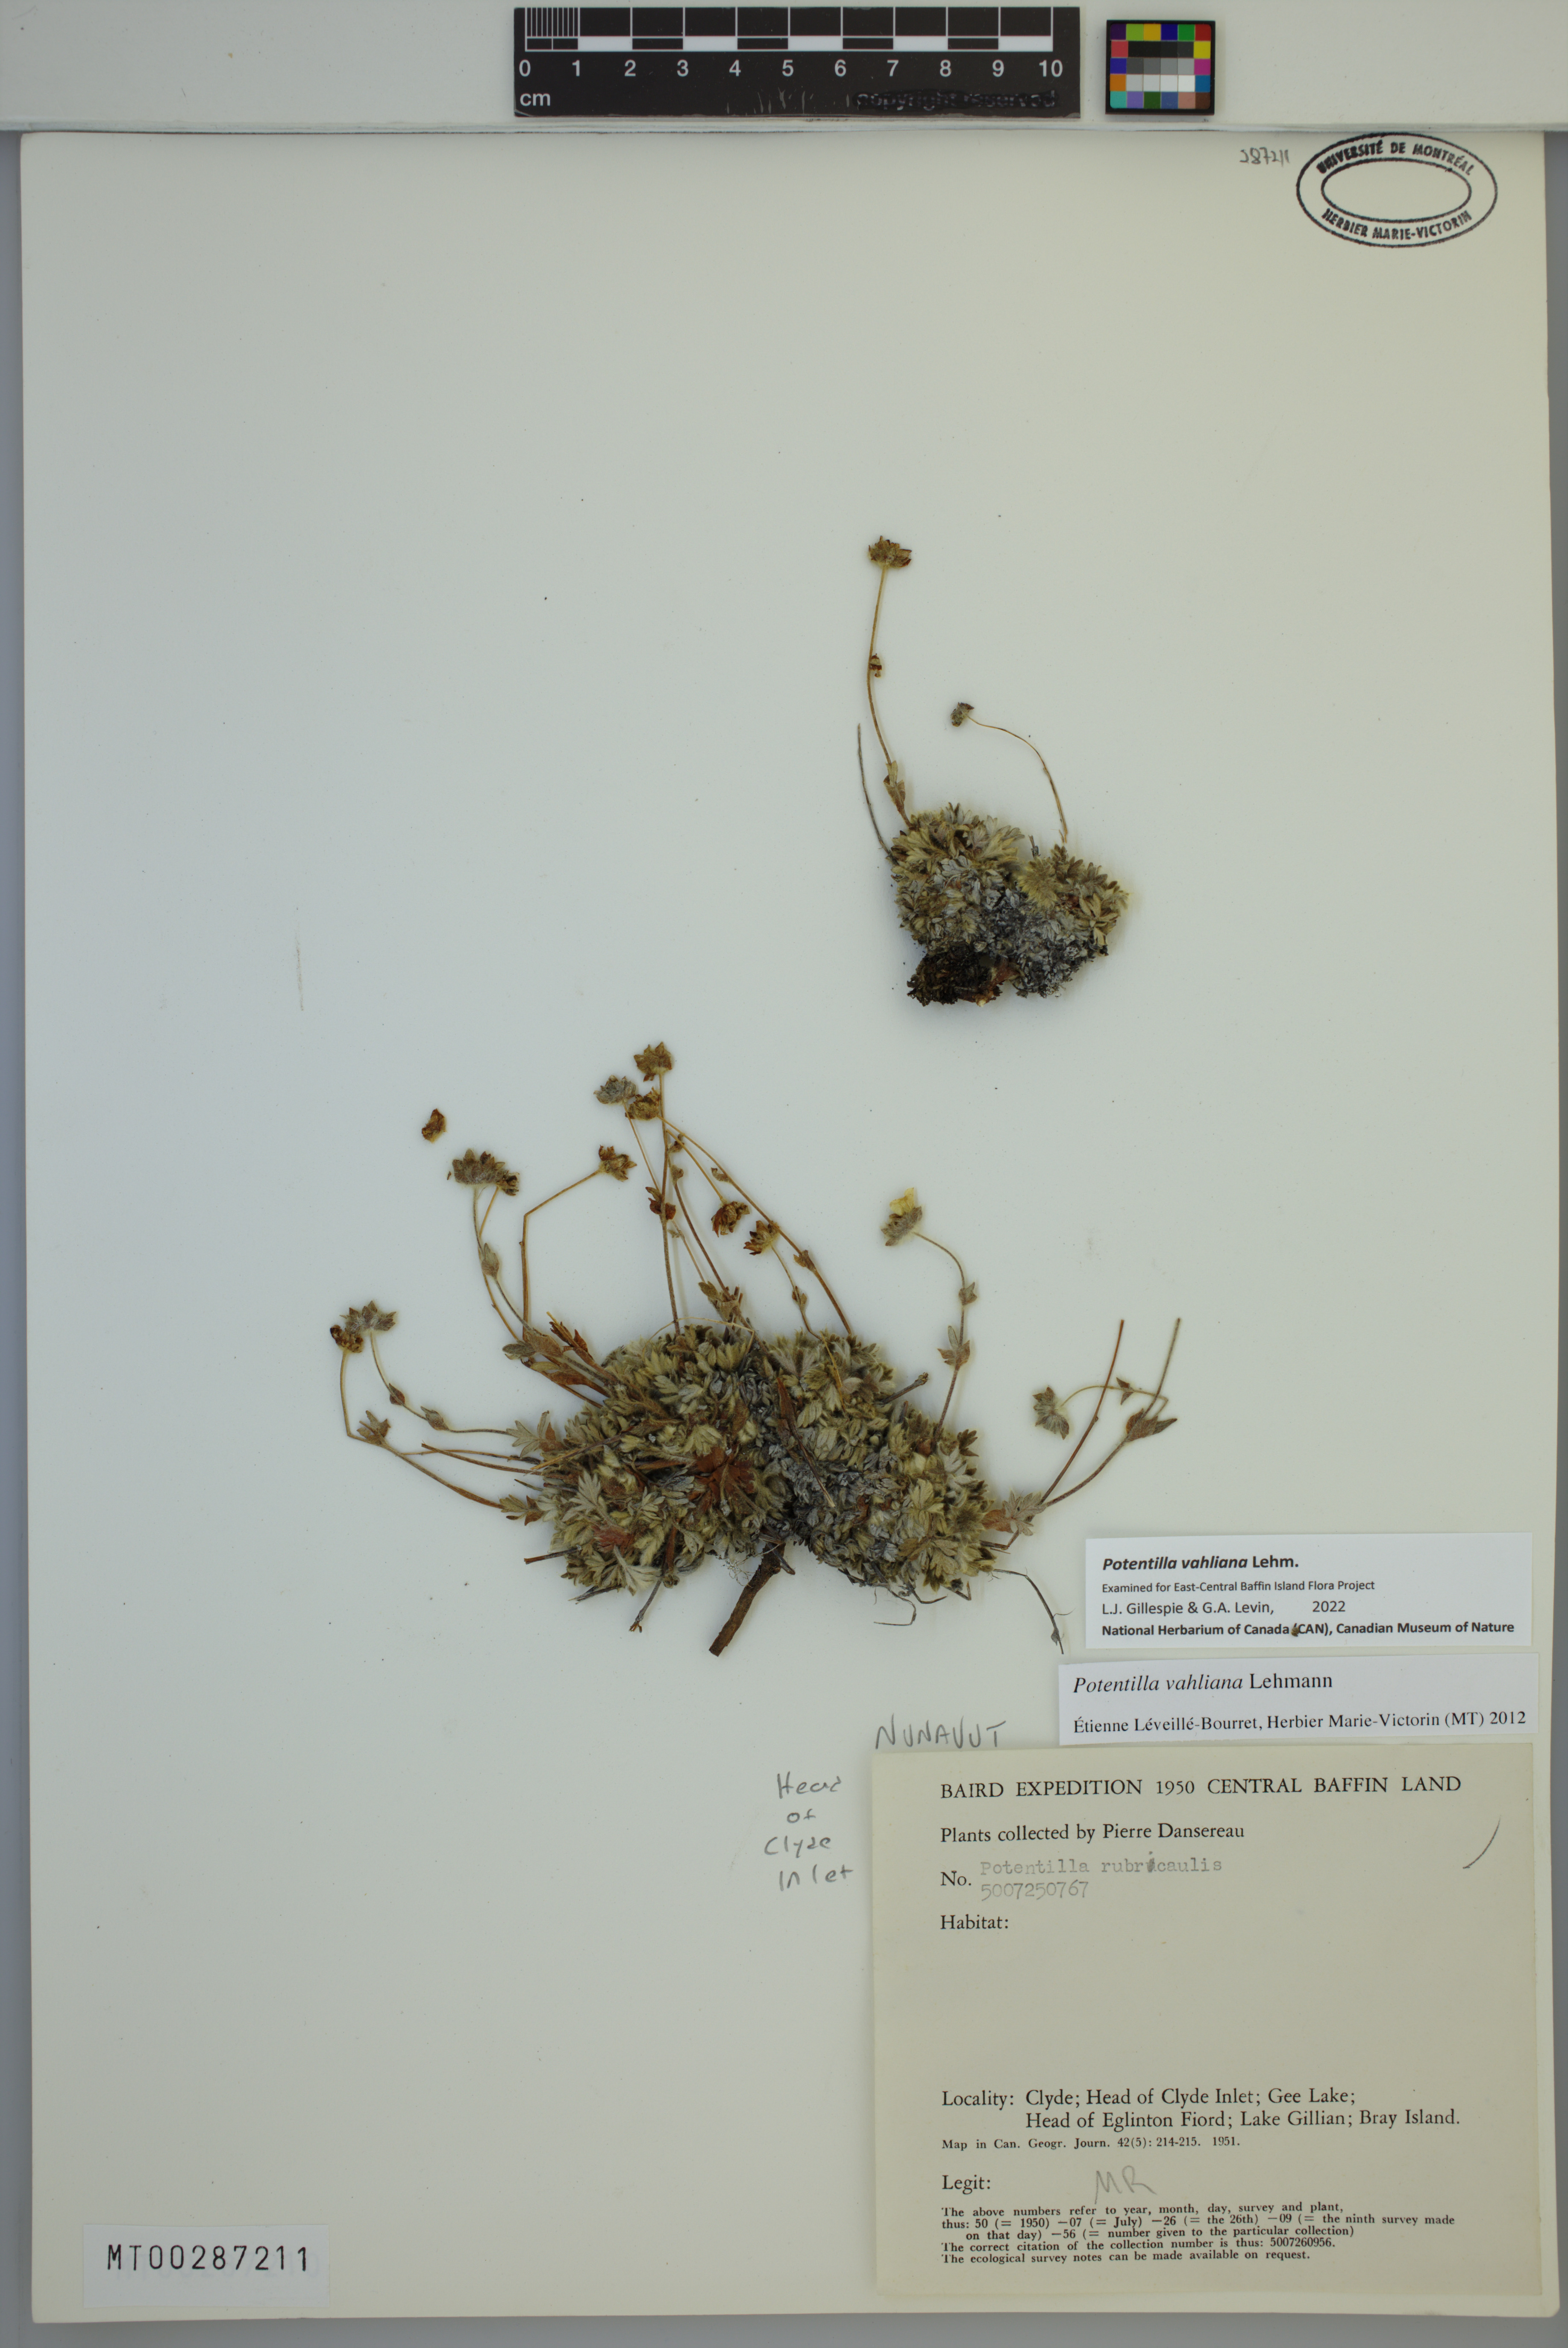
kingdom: Plantae
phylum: Tracheophyta
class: Magnoliopsida
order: Rosales
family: Rosaceae
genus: Potentilla
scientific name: Potentilla vahliana
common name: Vahl's cinquefoil
